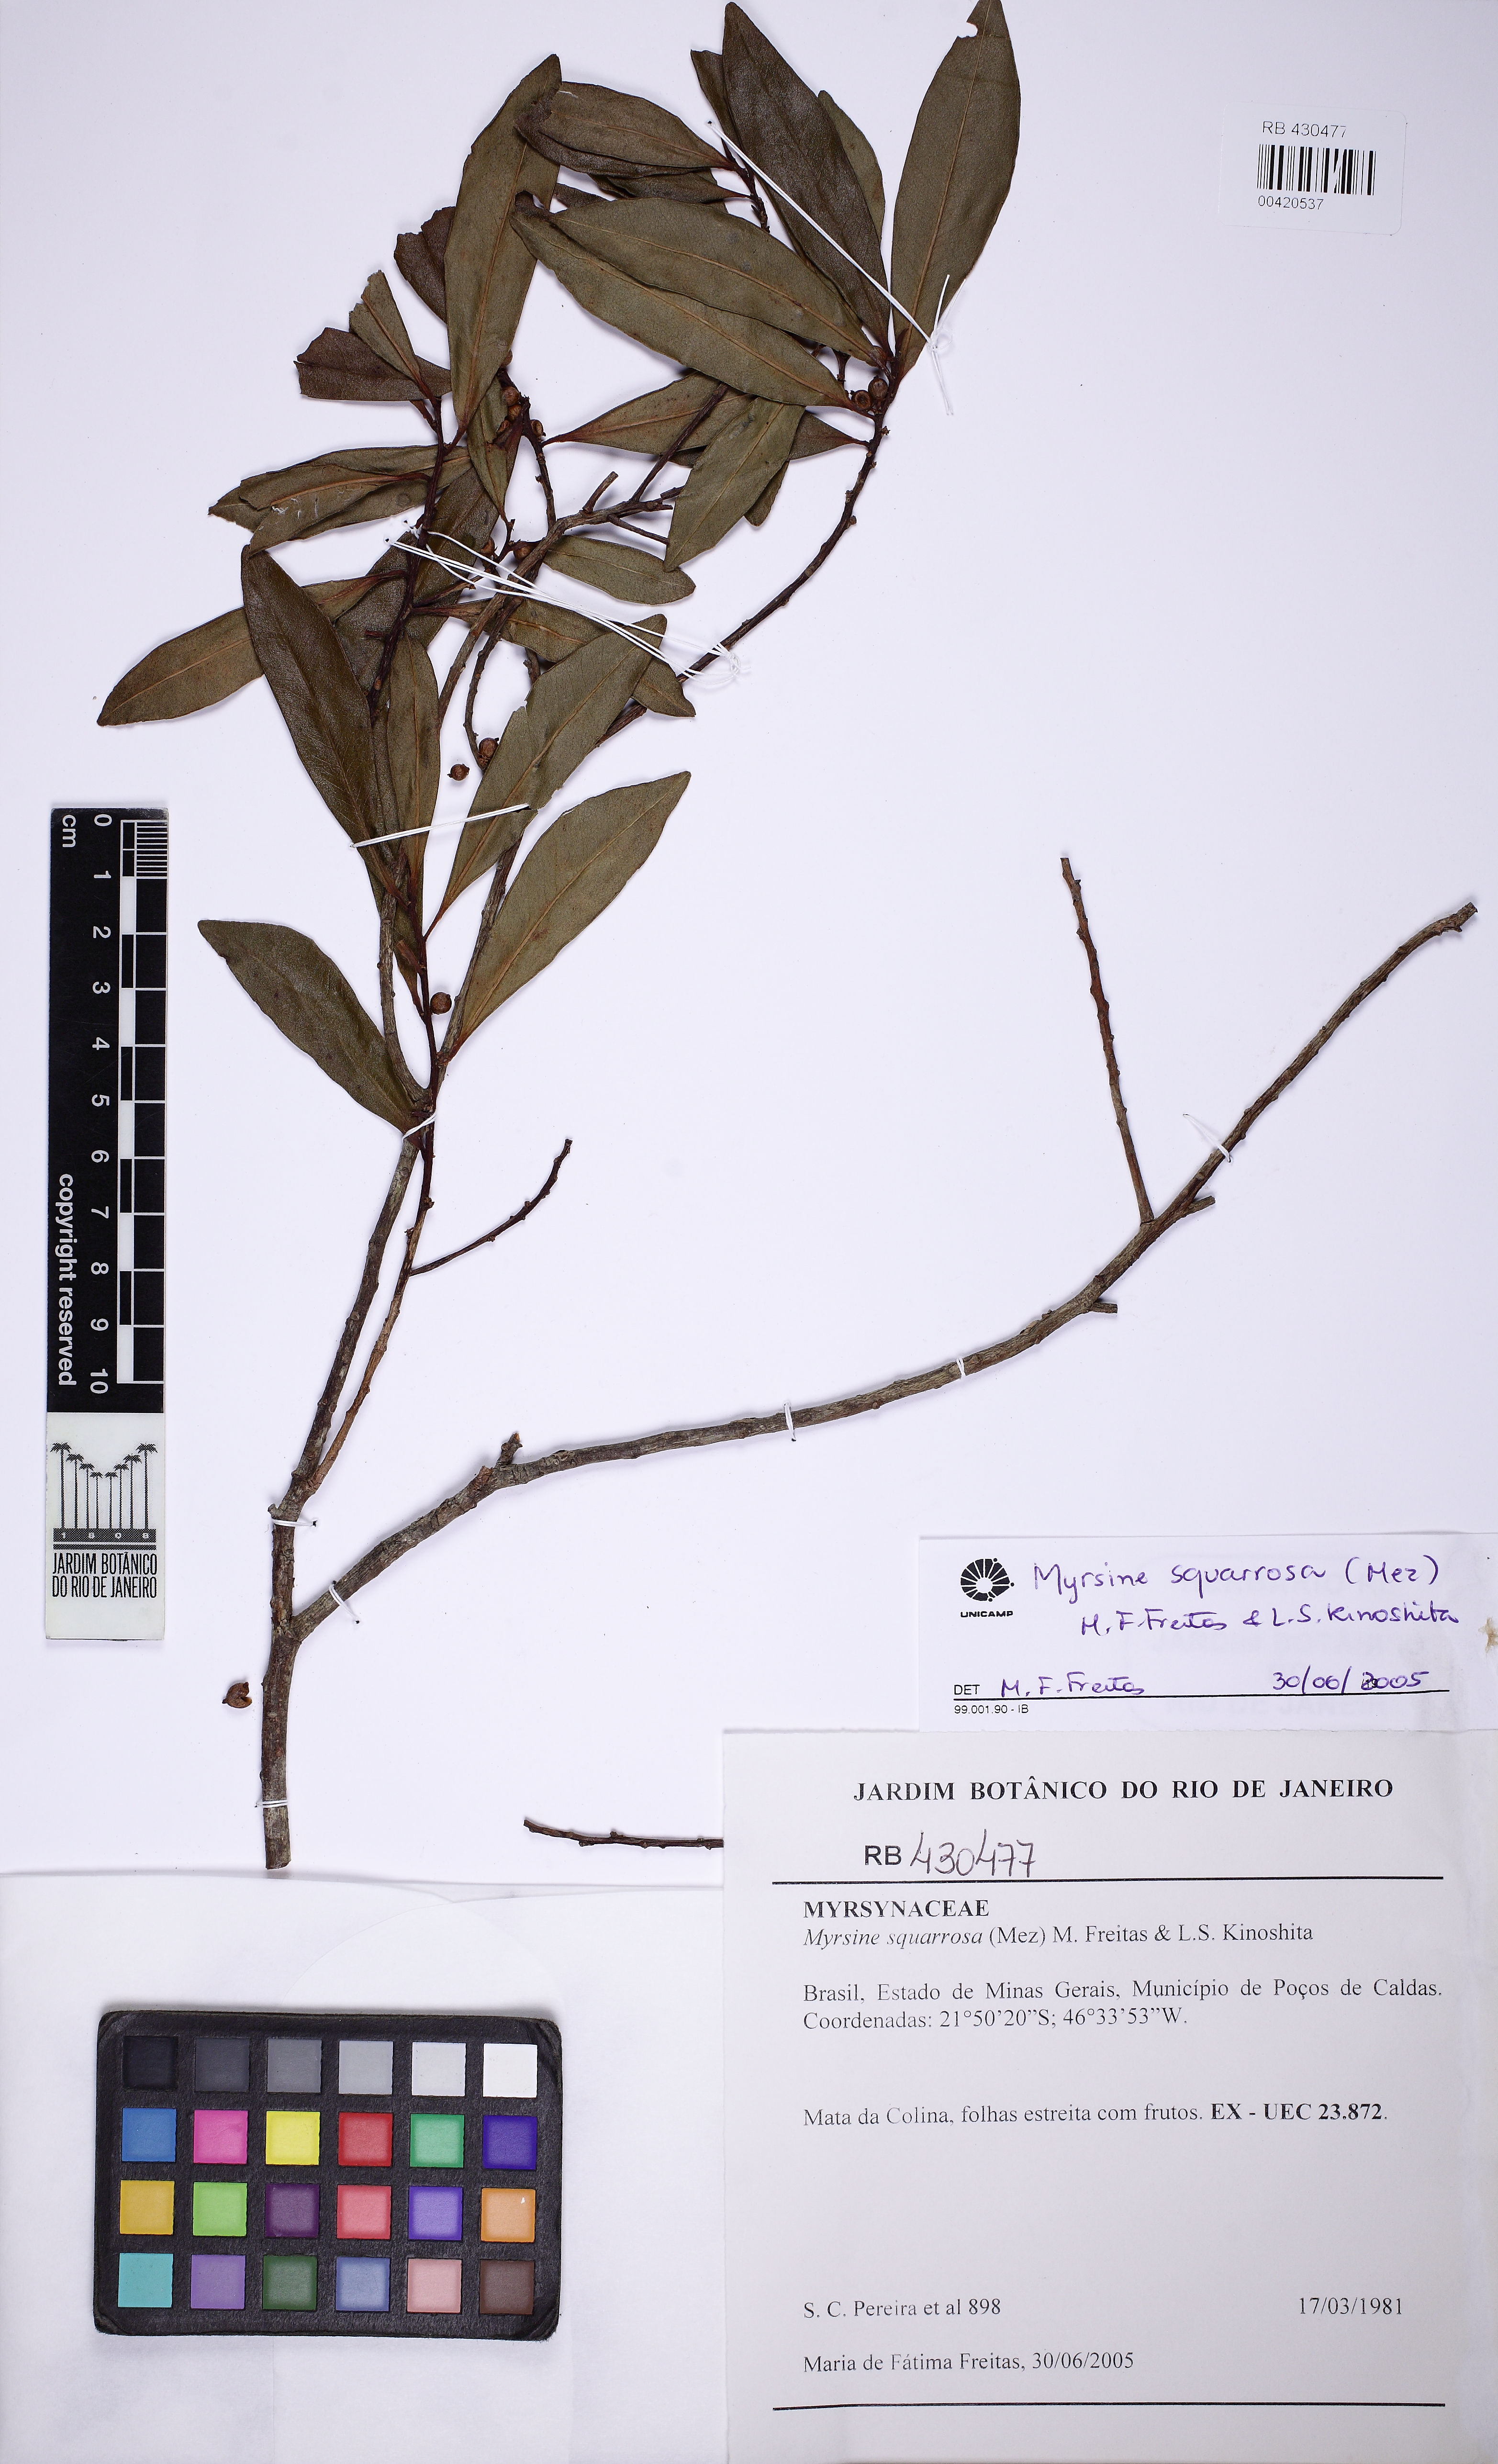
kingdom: Plantae
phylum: Tracheophyta
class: Magnoliopsida
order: Ericales
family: Primulaceae
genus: Myrsine
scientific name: Myrsine squarrosa
